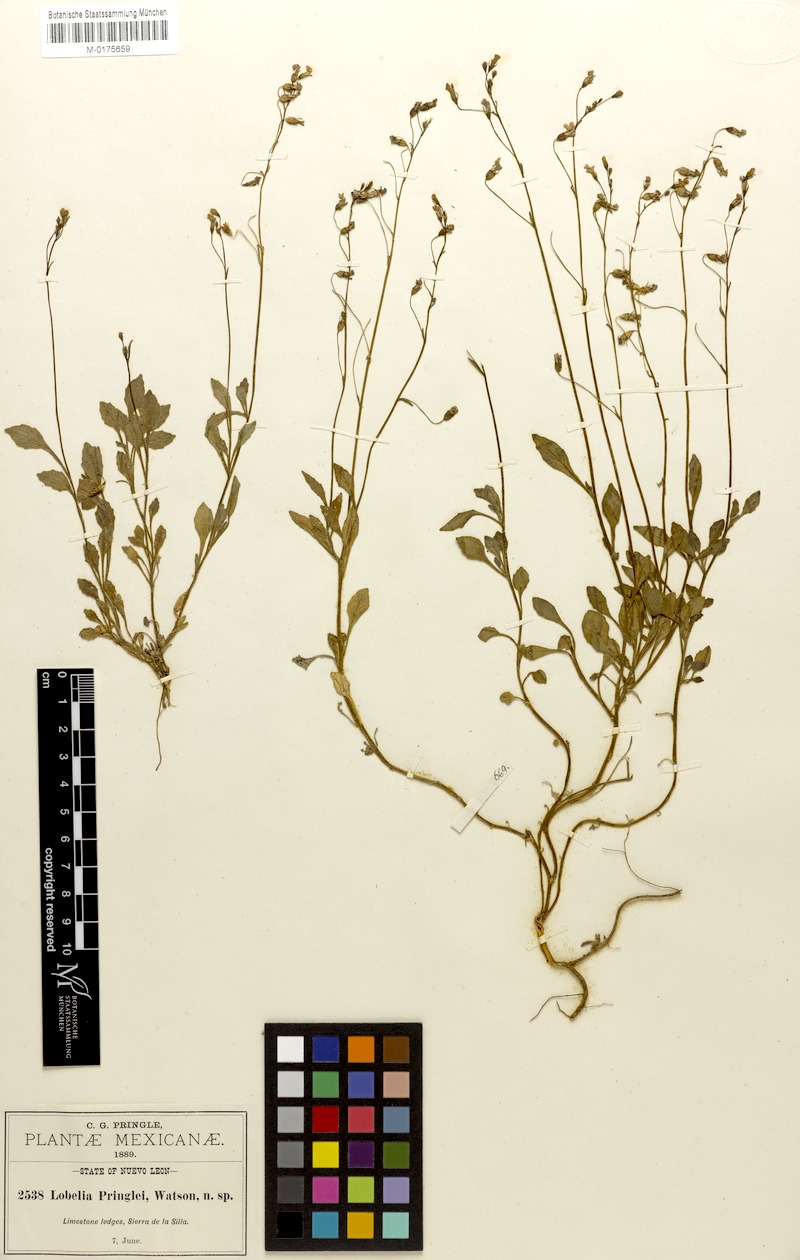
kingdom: Plantae
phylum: Tracheophyta
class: Magnoliopsida
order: Asterales
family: Campanulaceae
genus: Lobelia
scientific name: Lobelia pringlei
